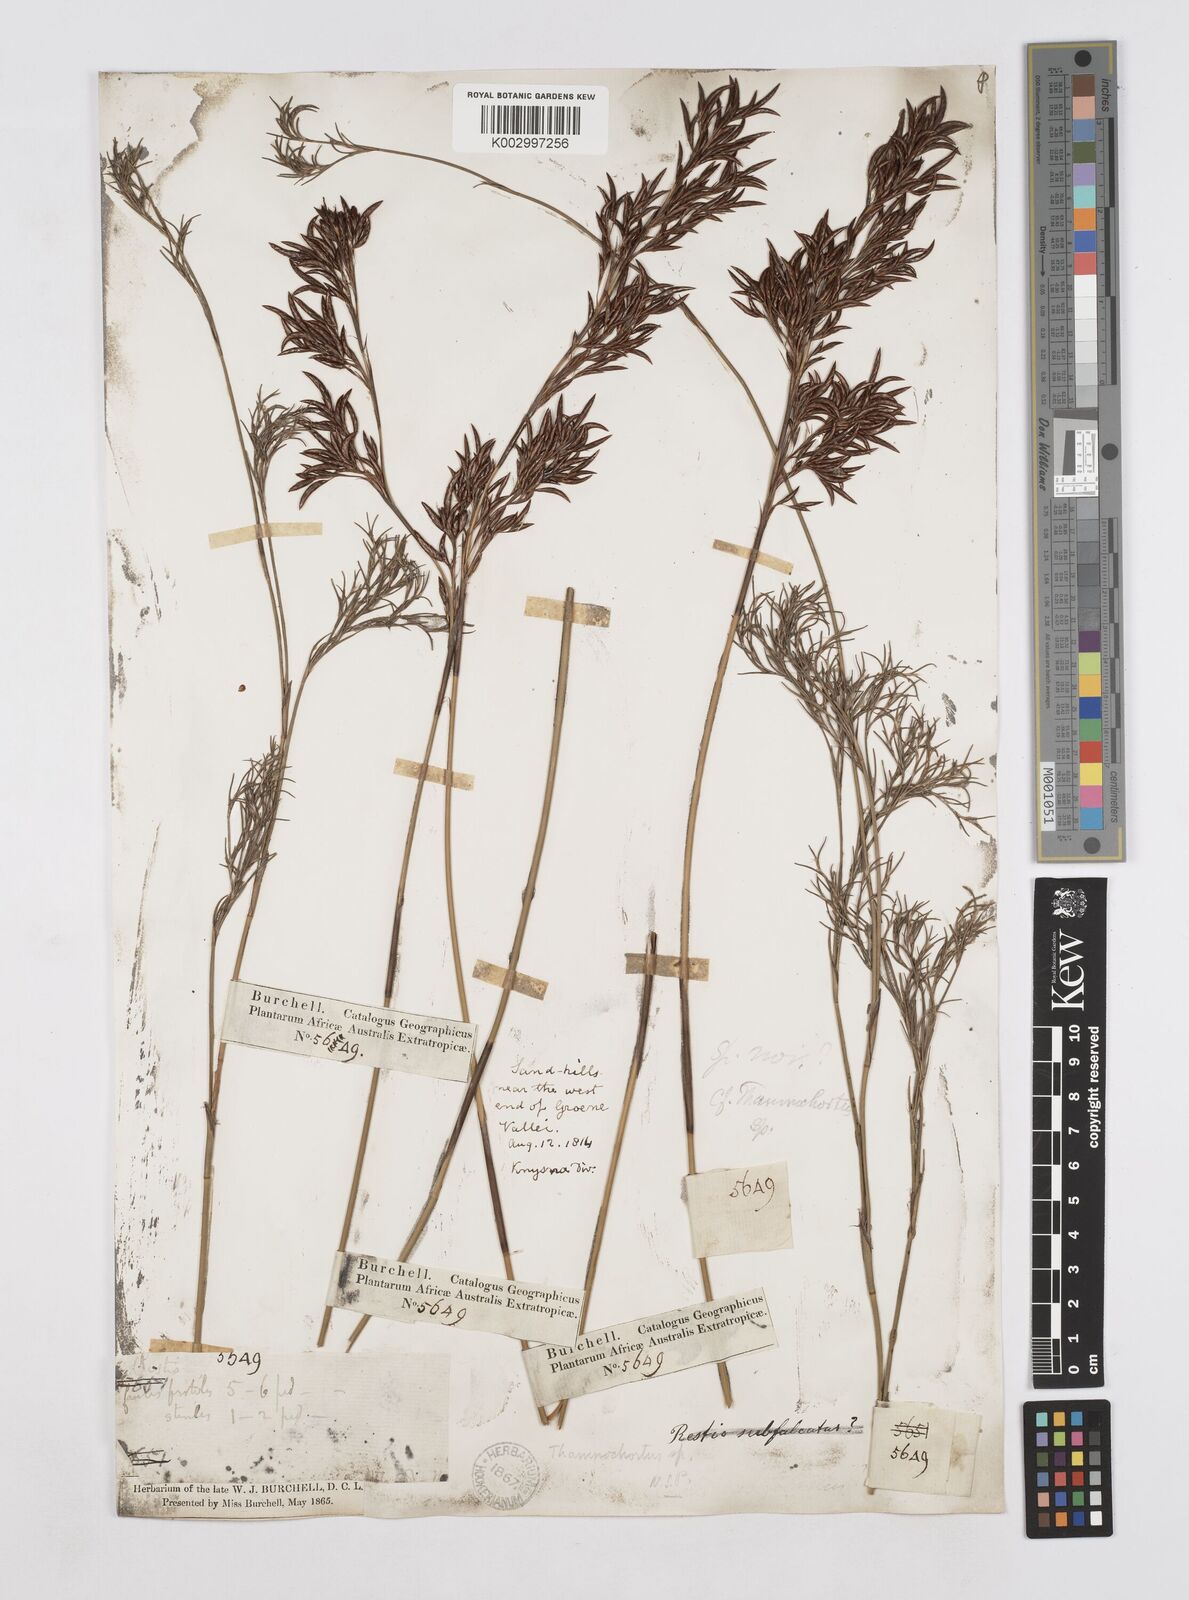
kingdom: Plantae
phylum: Tracheophyta
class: Liliopsida
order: Poales
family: Restionaceae
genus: Thamnochortus
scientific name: Thamnochortus spicigerus
